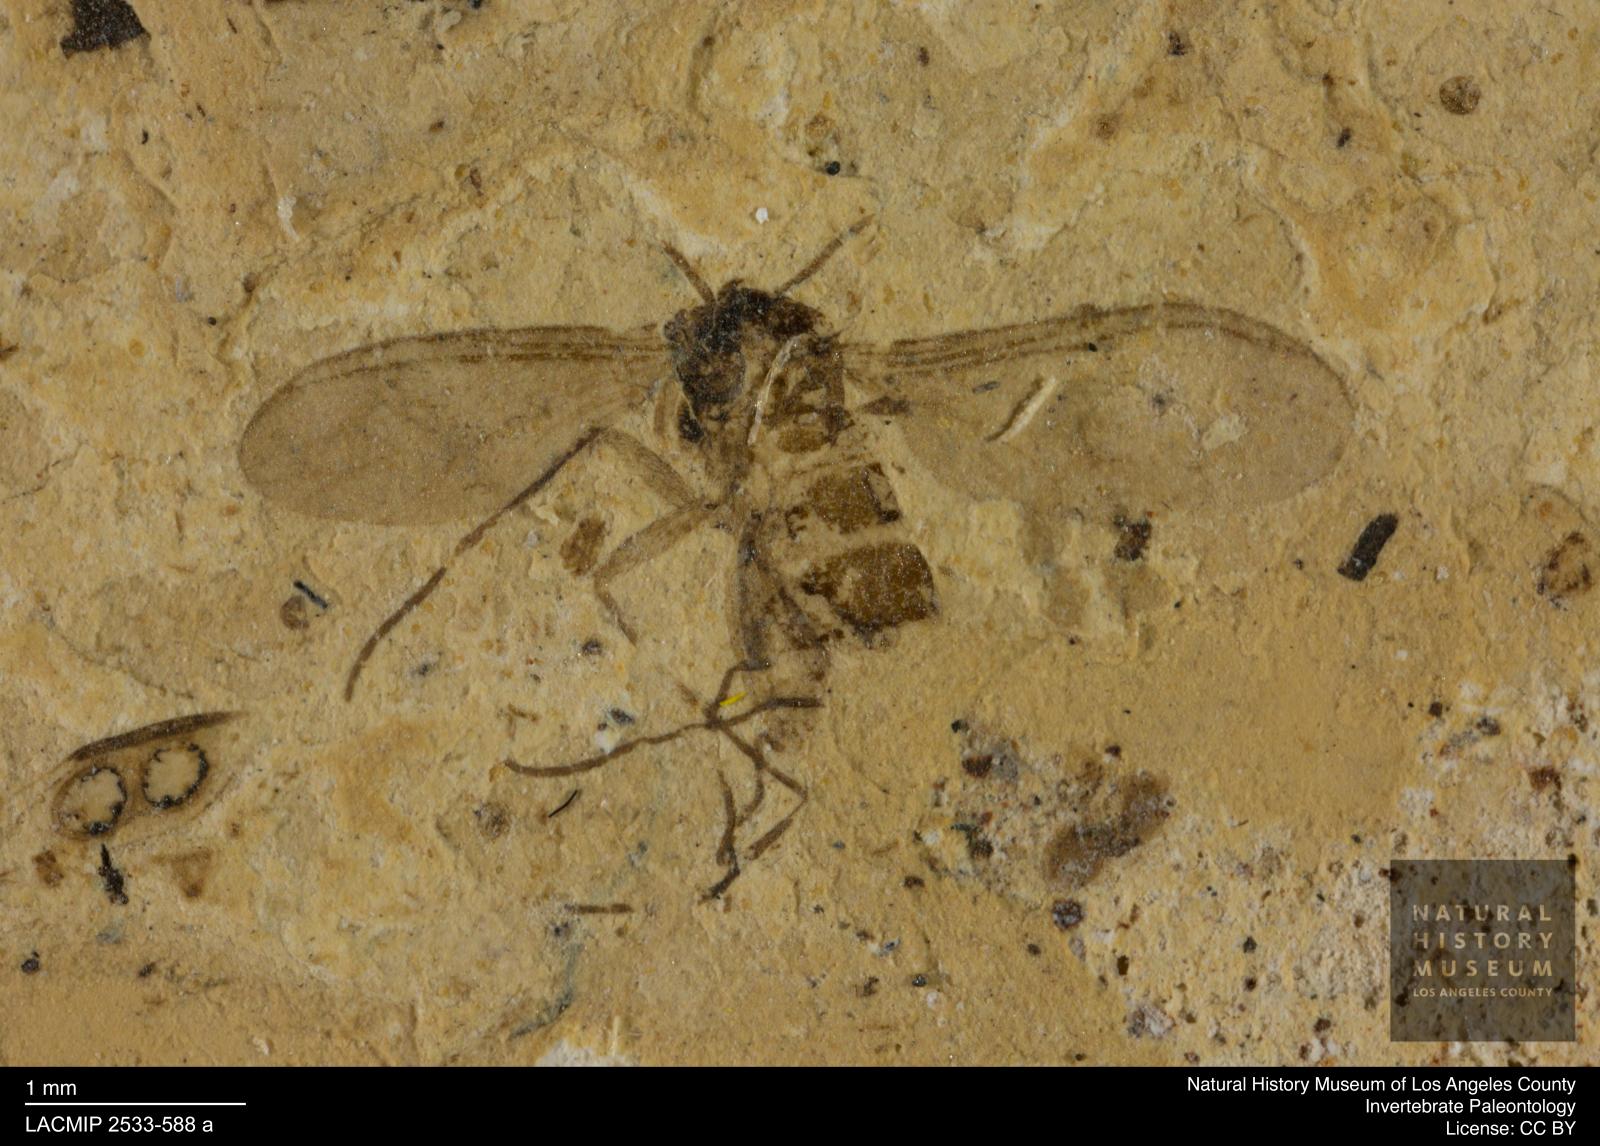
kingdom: Animalia
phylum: Arthropoda
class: Insecta
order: Diptera
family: Sciaridae
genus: Sciara
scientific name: Sciara lengersdorfi
